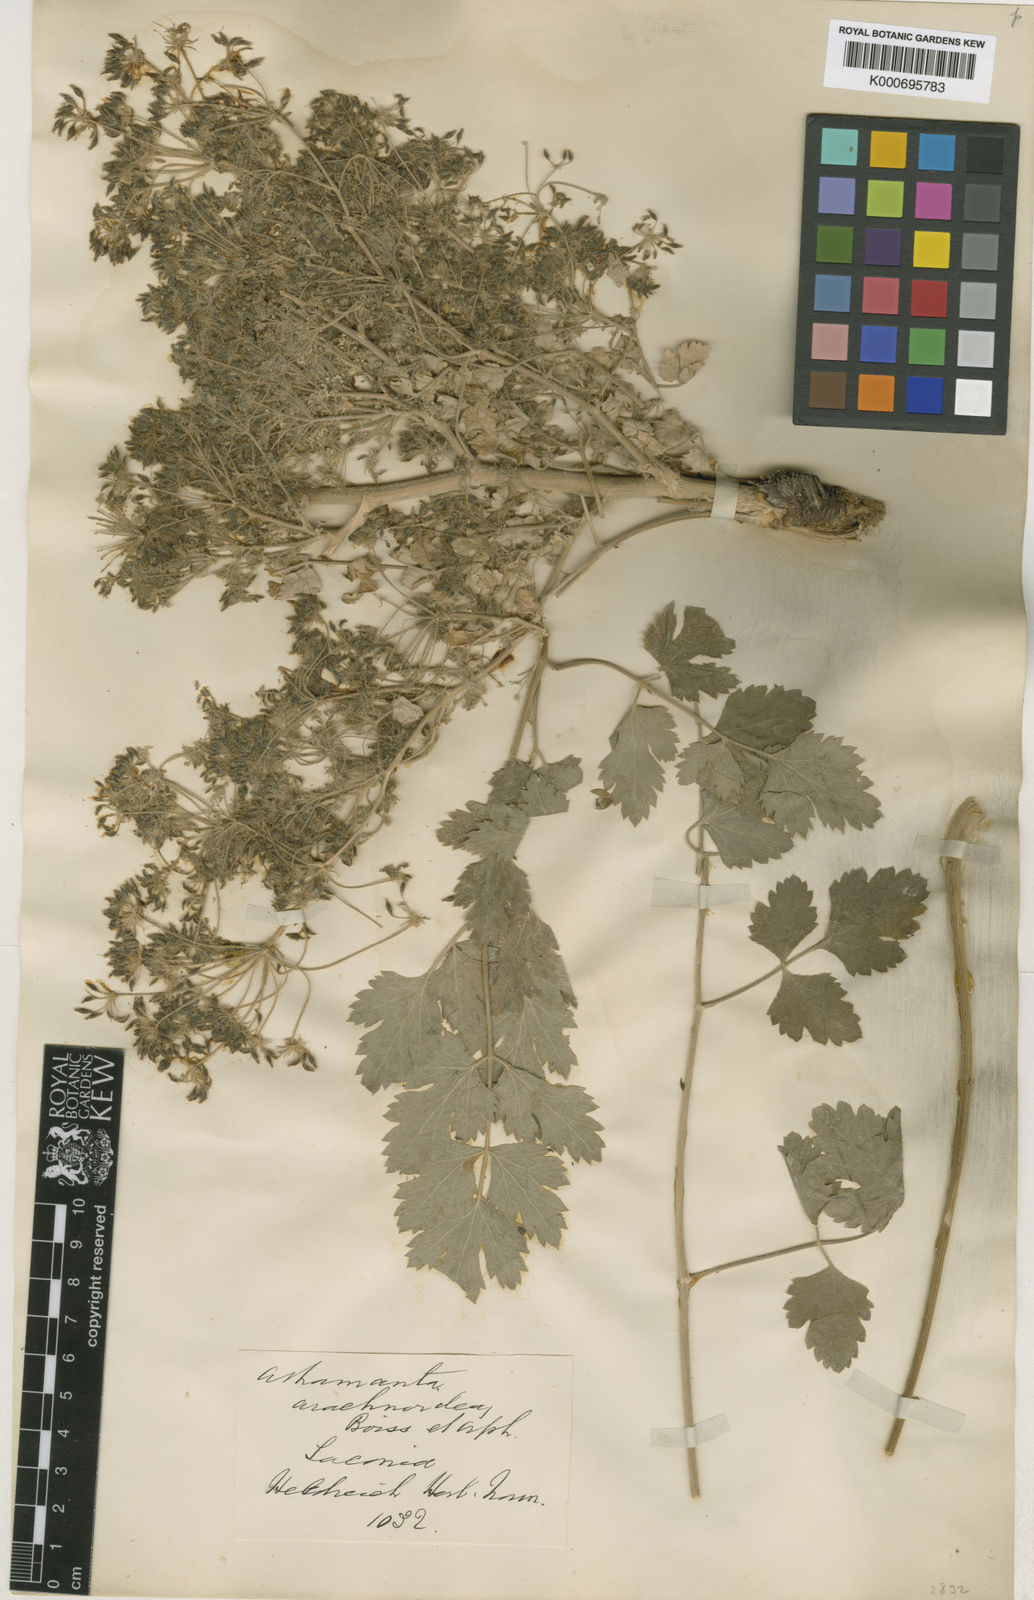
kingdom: Plantae
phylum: Tracheophyta
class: Magnoliopsida
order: Apiales
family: Apiaceae
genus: Bubon
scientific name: Bubon macedonicum
